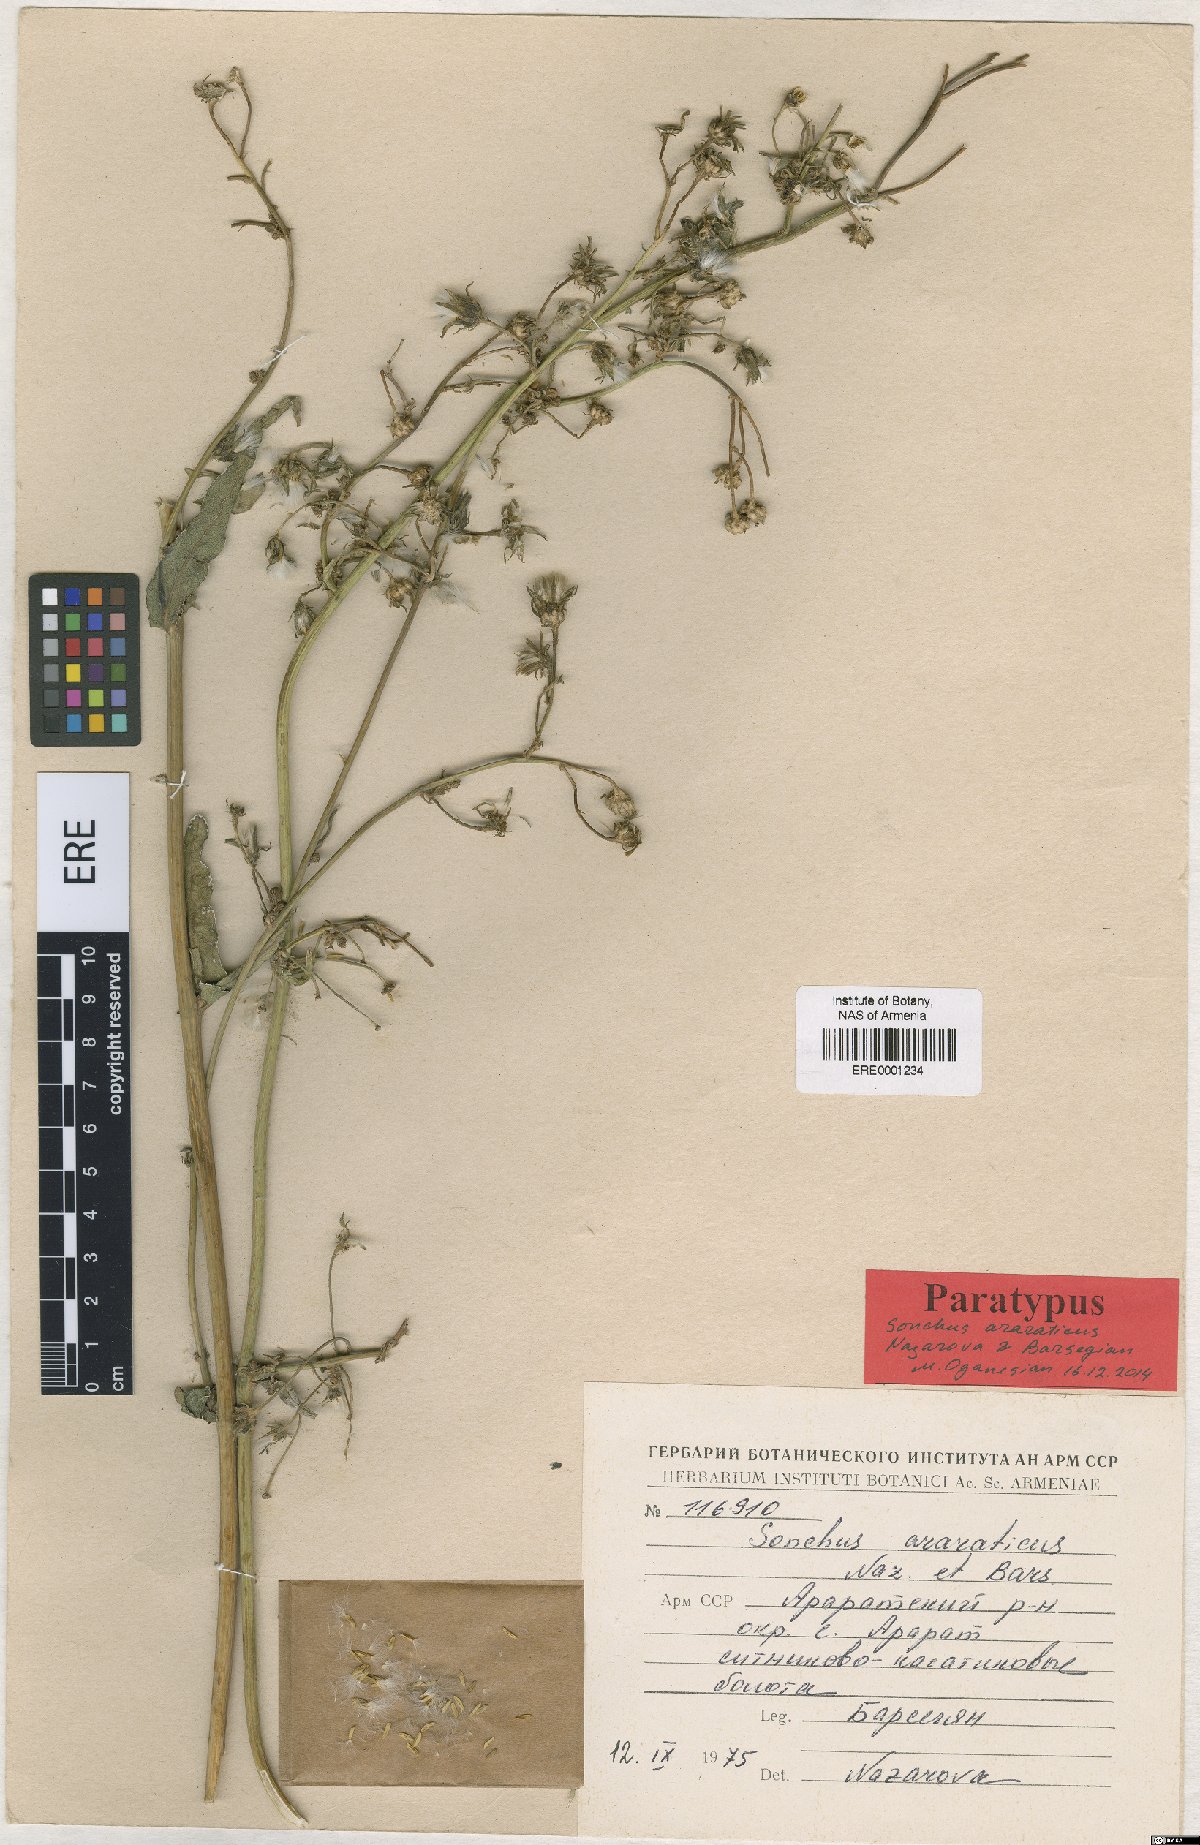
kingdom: Plantae
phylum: Tracheophyta
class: Magnoliopsida
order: Asterales
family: Asteraceae
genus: Sonchus
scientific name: Sonchus araraticus
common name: Araratian sow-thistle
